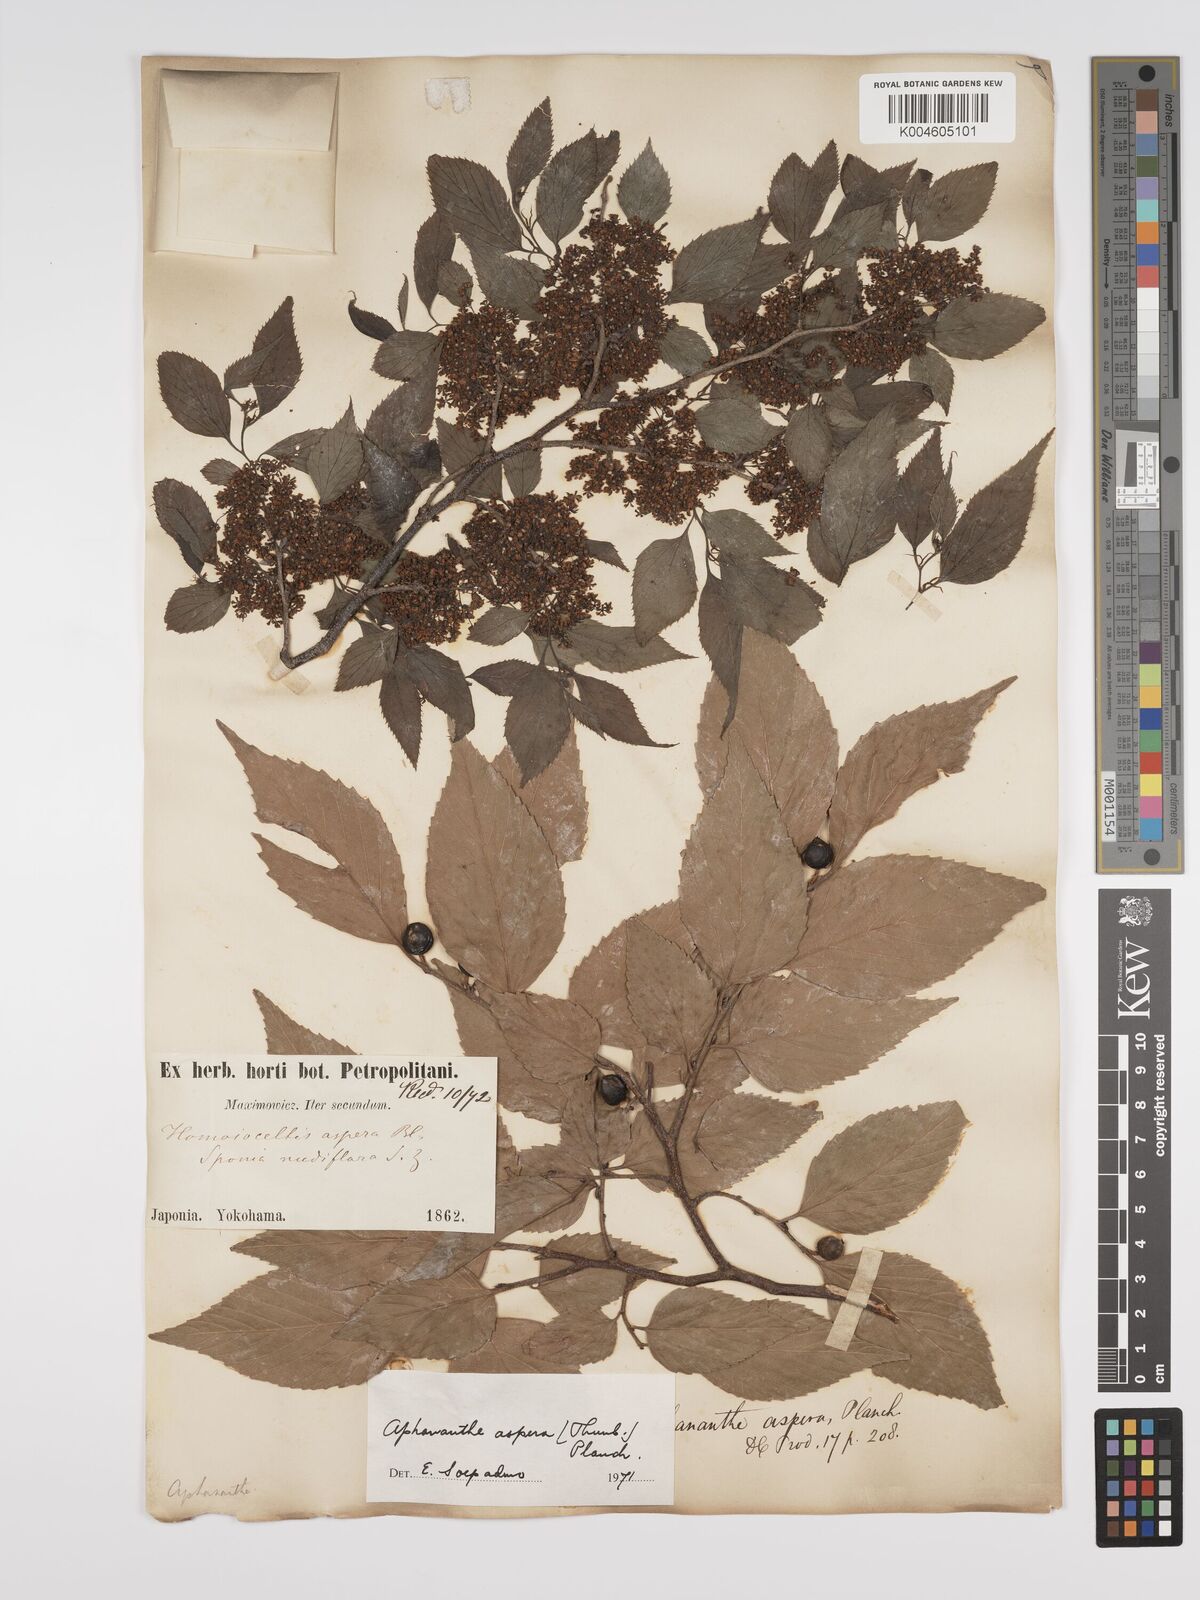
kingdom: Plantae
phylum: Tracheophyta
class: Magnoliopsida
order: Rosales
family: Cannabaceae
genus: Aphananthe
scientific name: Aphananthe aspera
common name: Mukutree
